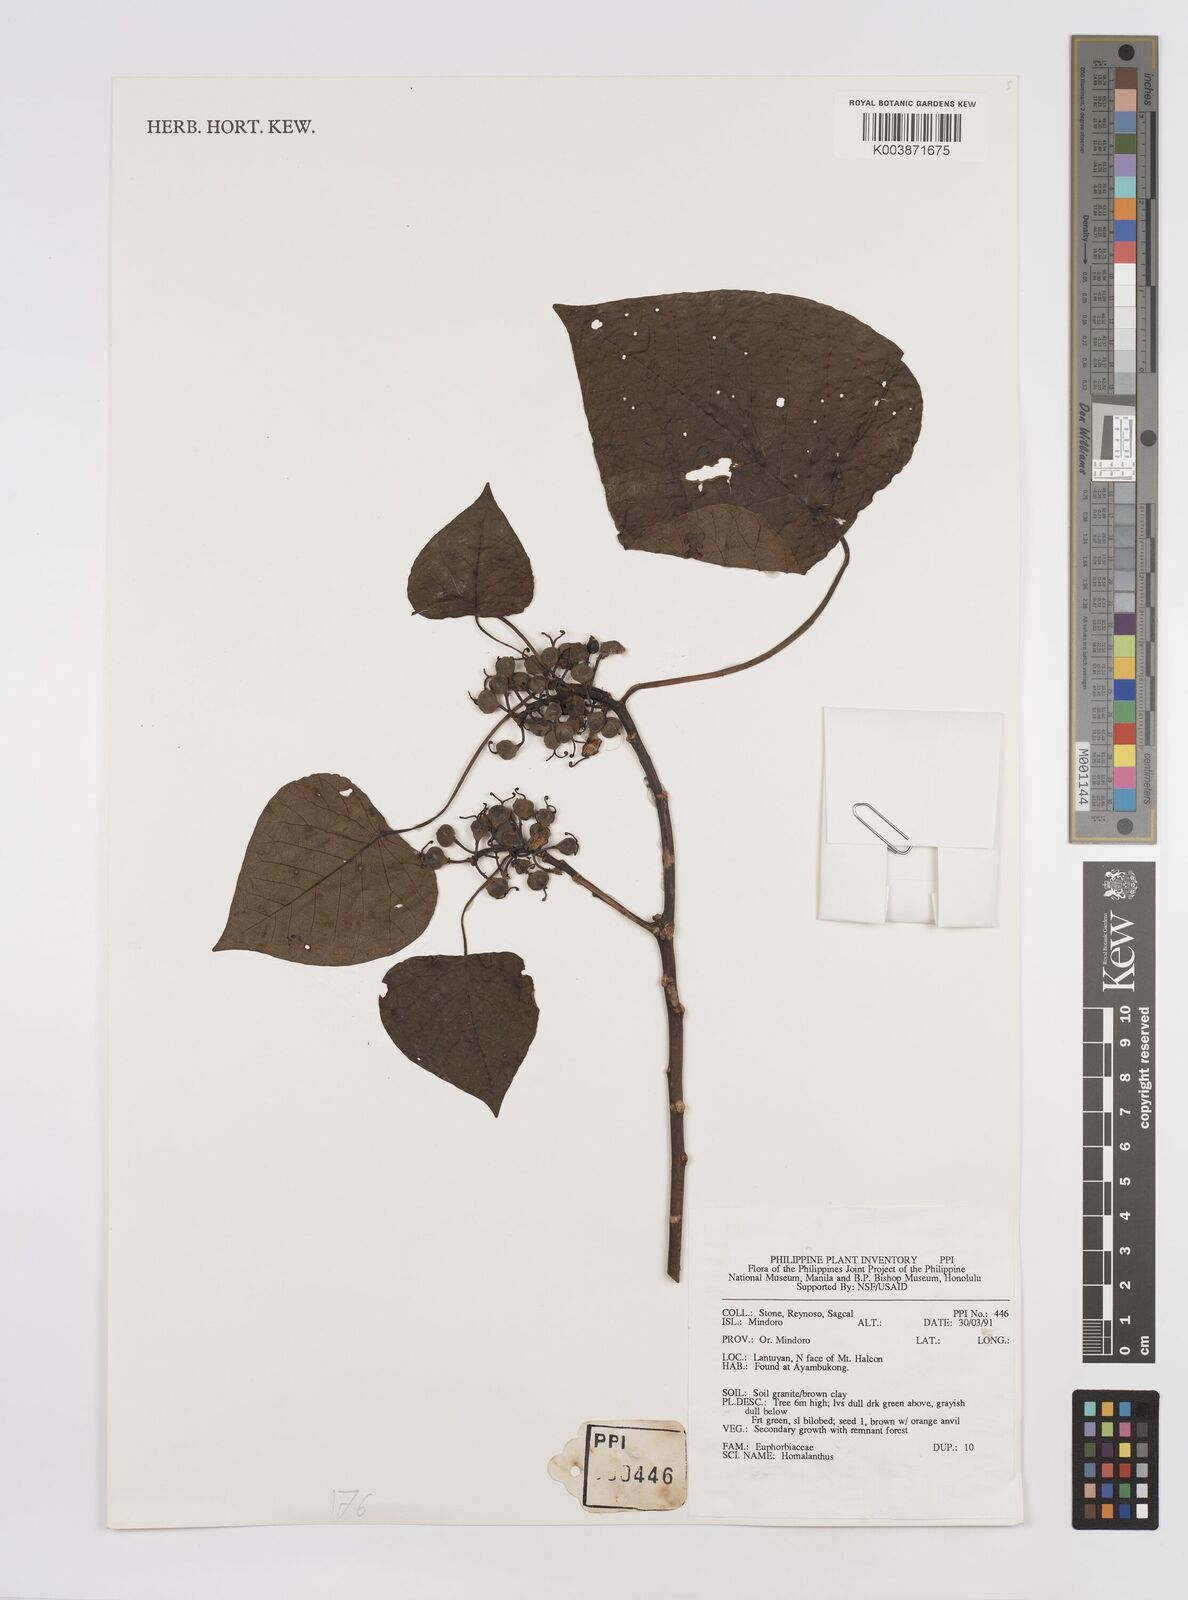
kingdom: Plantae
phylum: Tracheophyta
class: Magnoliopsida
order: Malpighiales
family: Euphorbiaceae
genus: Homalanthus
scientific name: Homalanthus fastuosus
